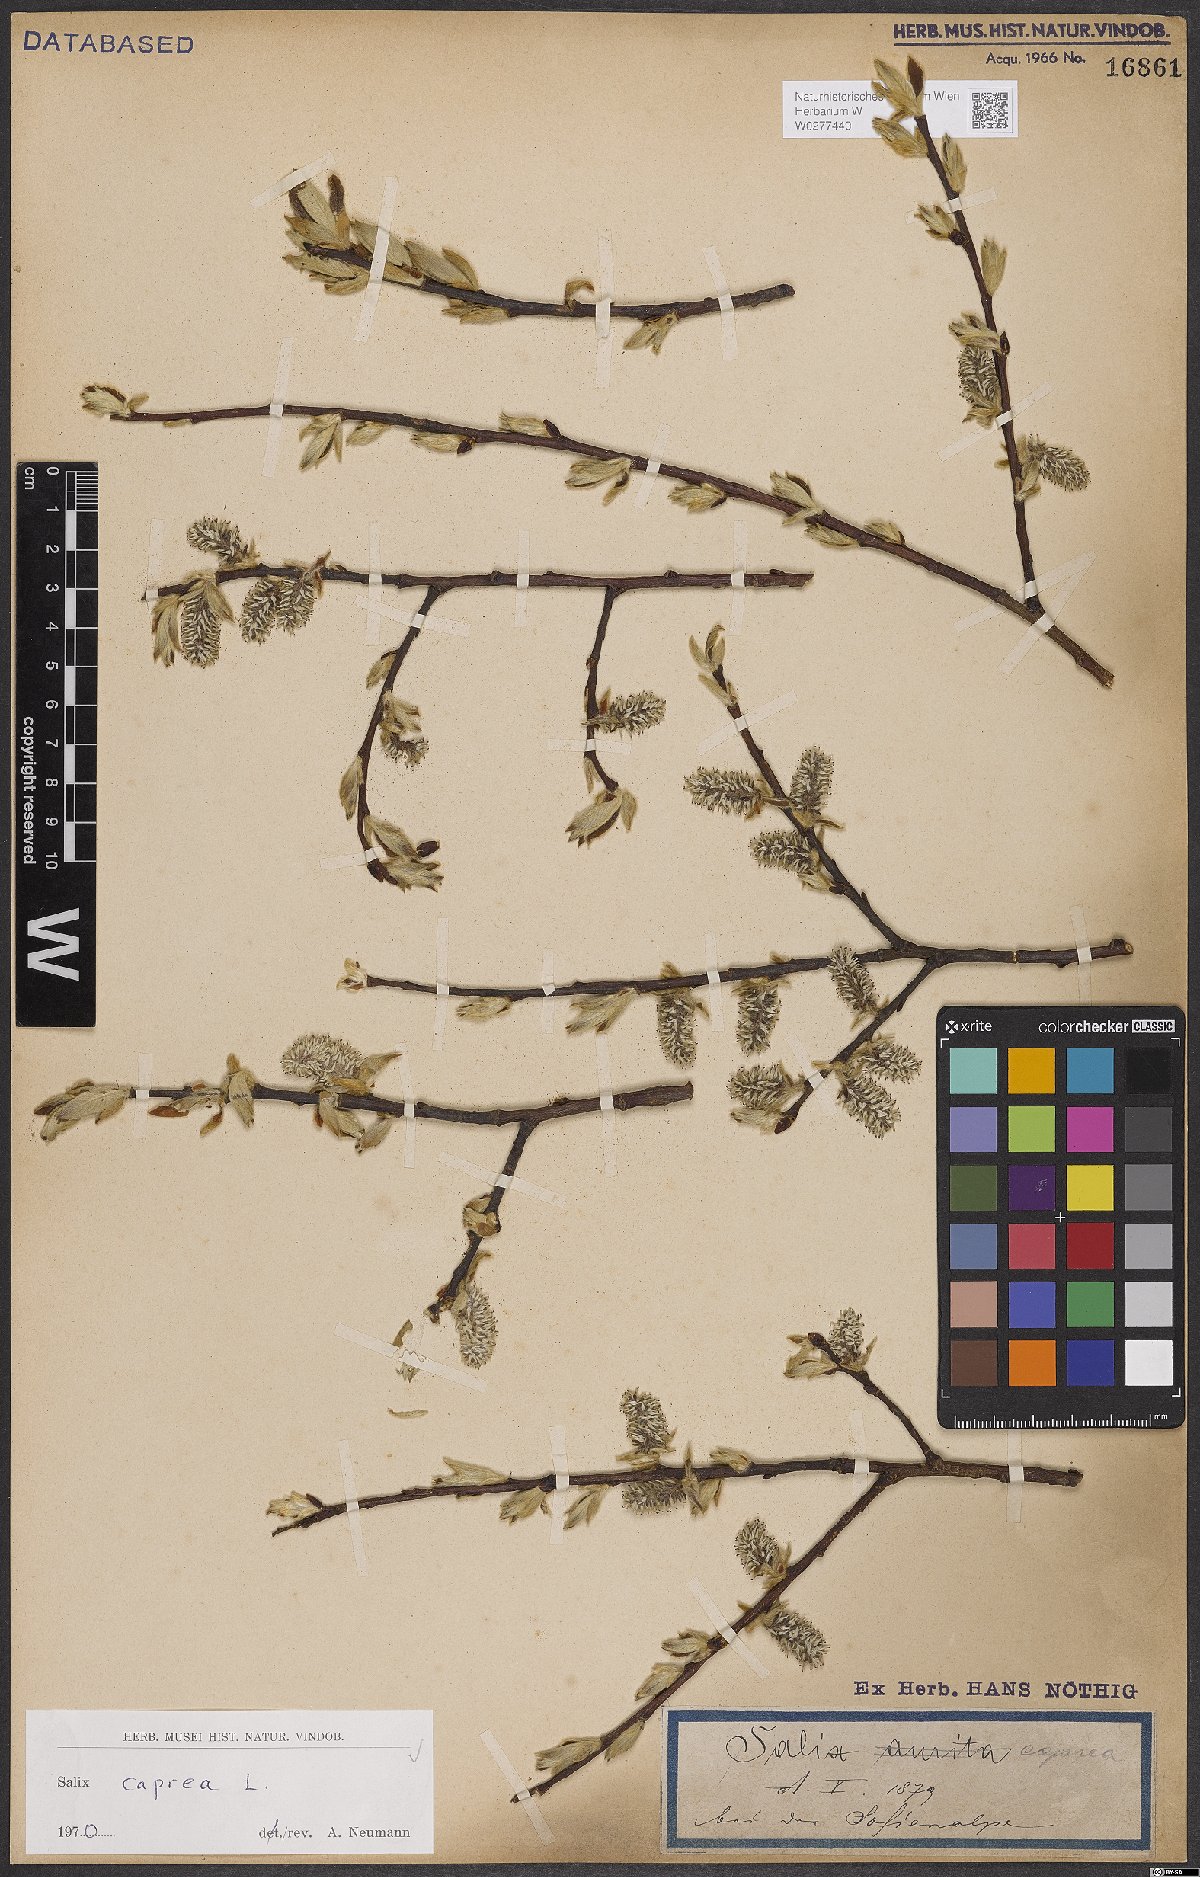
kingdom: Plantae
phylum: Tracheophyta
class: Magnoliopsida
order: Malpighiales
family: Salicaceae
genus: Salix
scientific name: Salix caprea
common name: Goat willow
